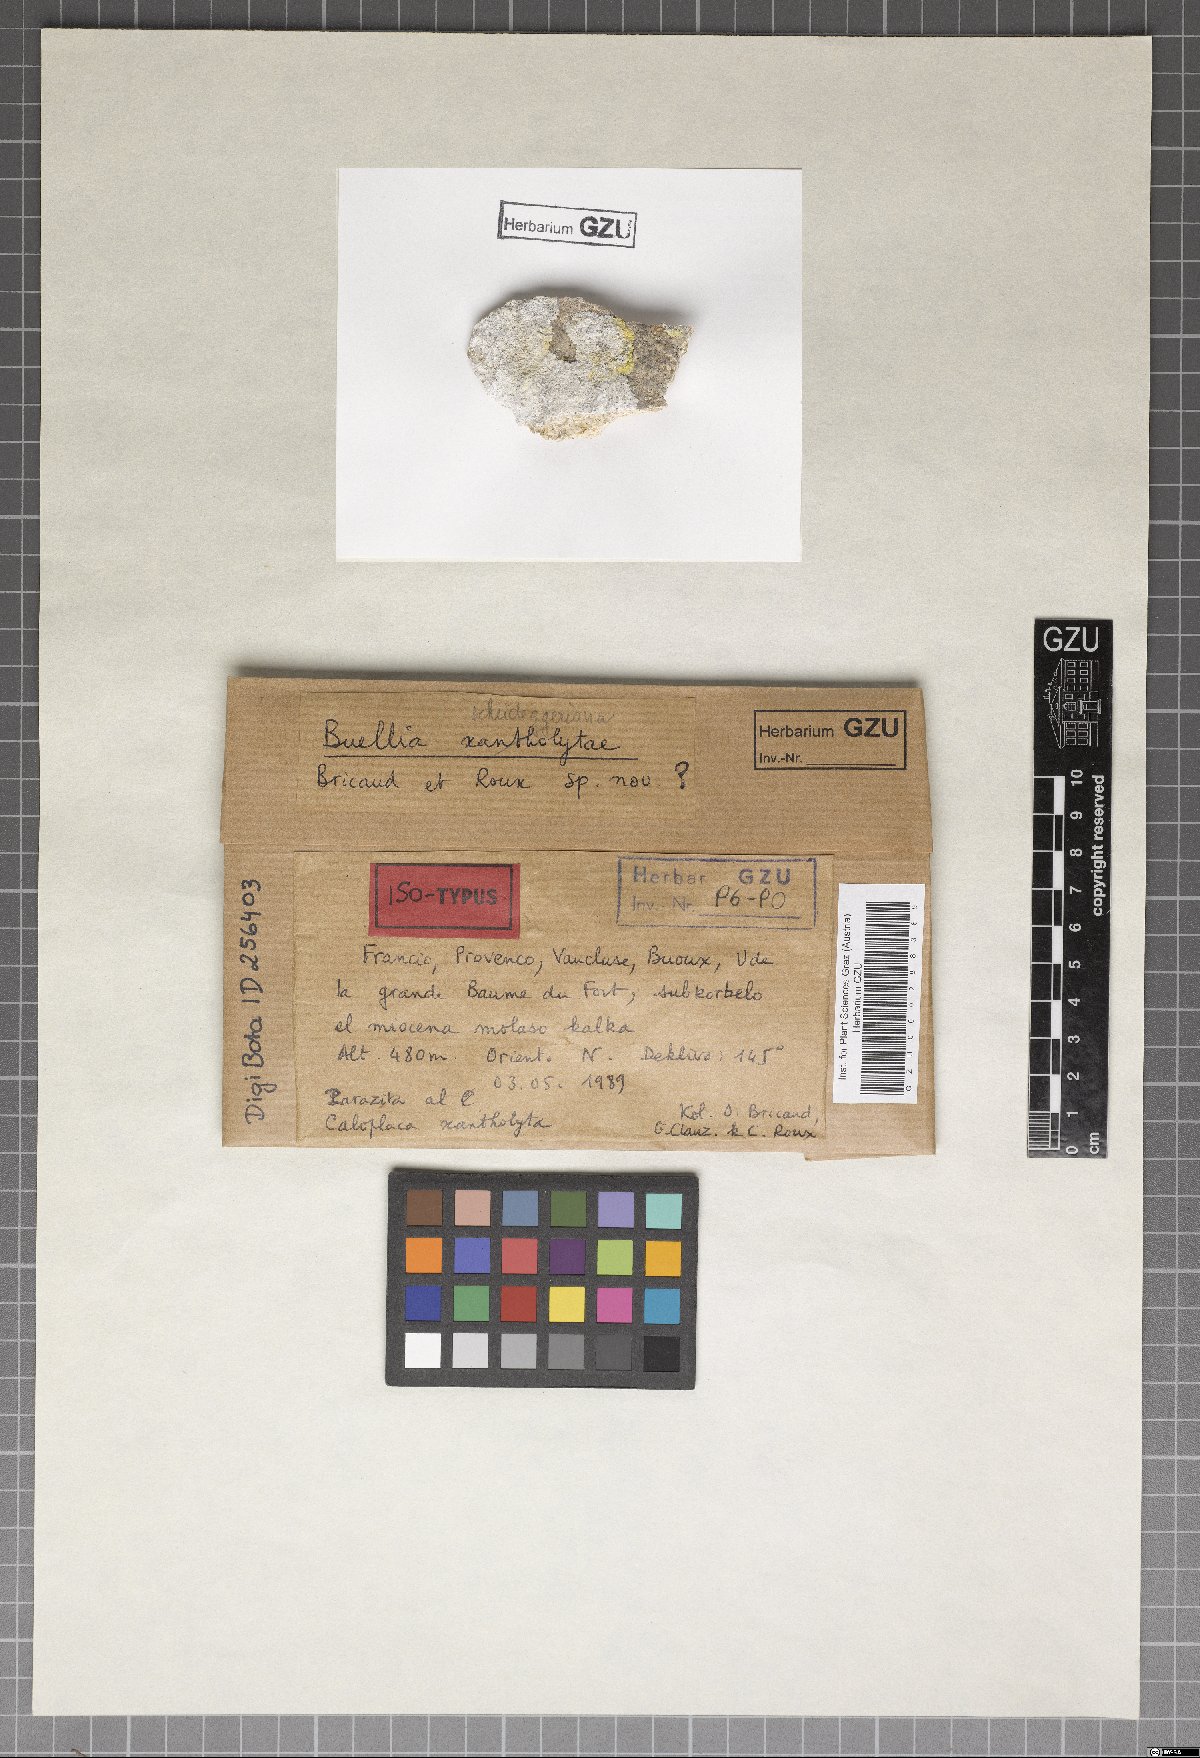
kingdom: Fungi
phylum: Ascomycota
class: Lecanoromycetes
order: Caliciales
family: Caliciaceae
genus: Buellia
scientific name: Buellia scheideggeriana
